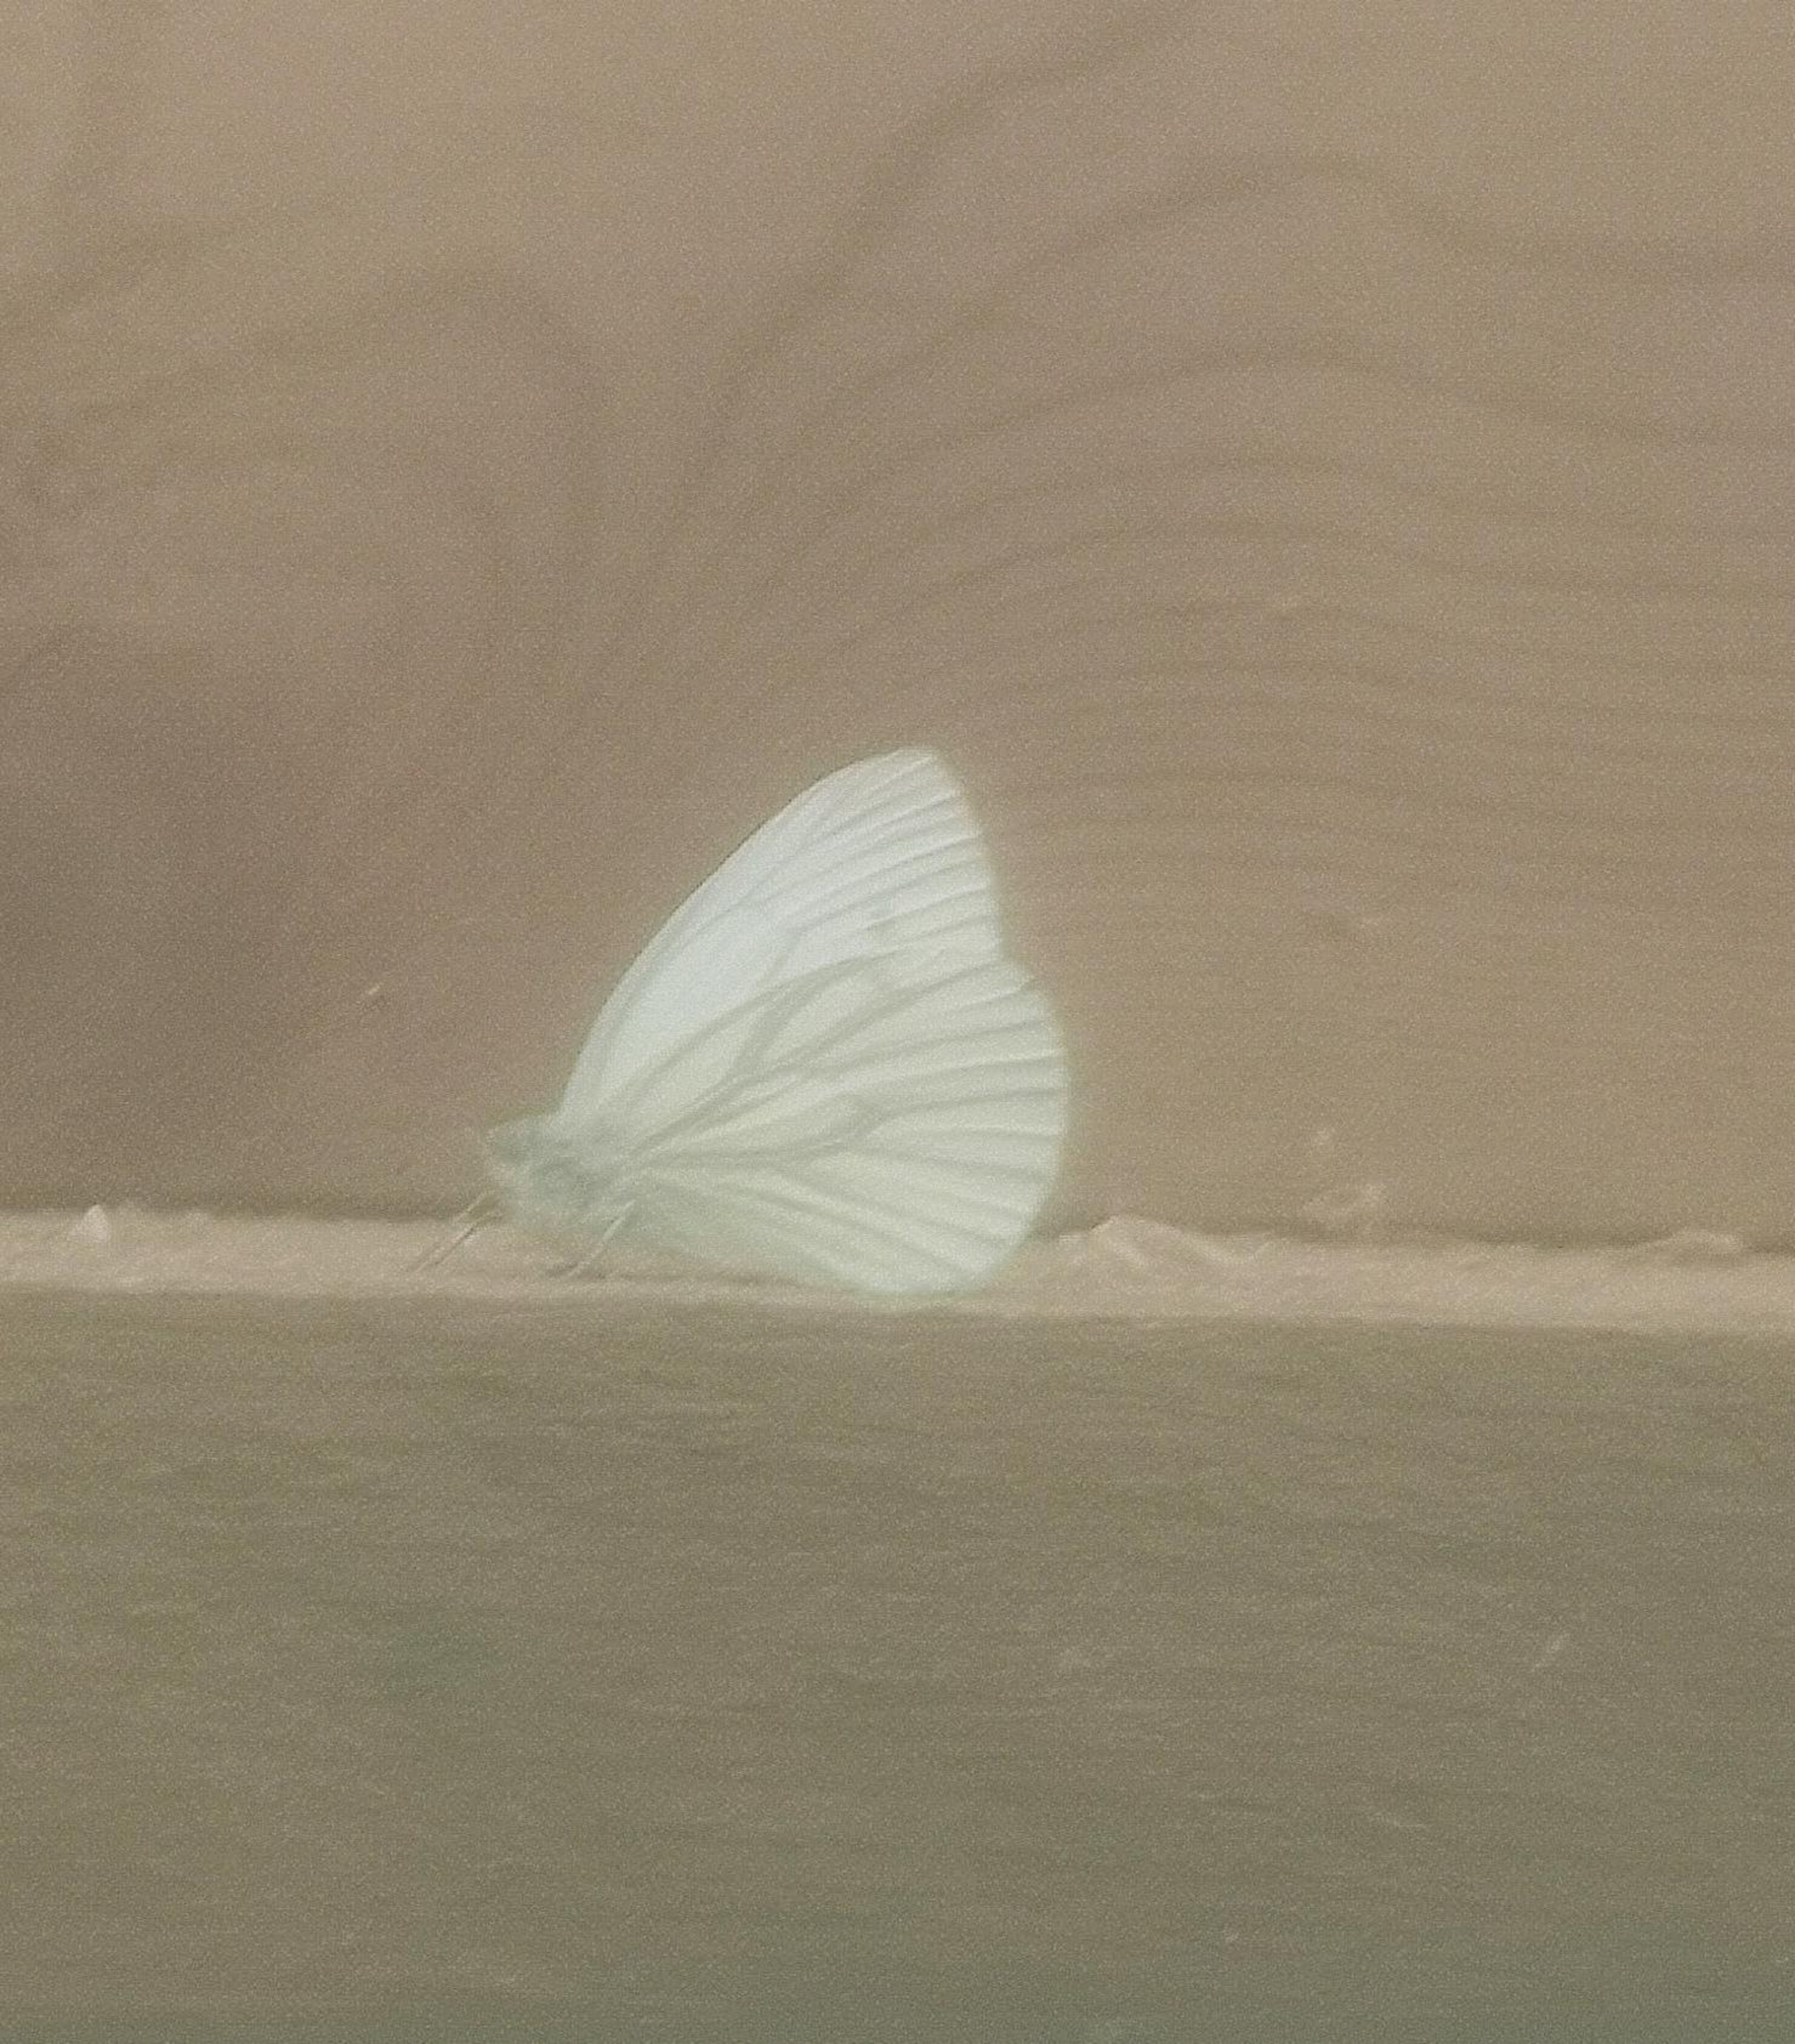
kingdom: Animalia
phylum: Arthropoda
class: Insecta
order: Lepidoptera
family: Pieridae
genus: Pieris
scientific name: Pieris napi
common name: Grønåret kålsommerfugl
